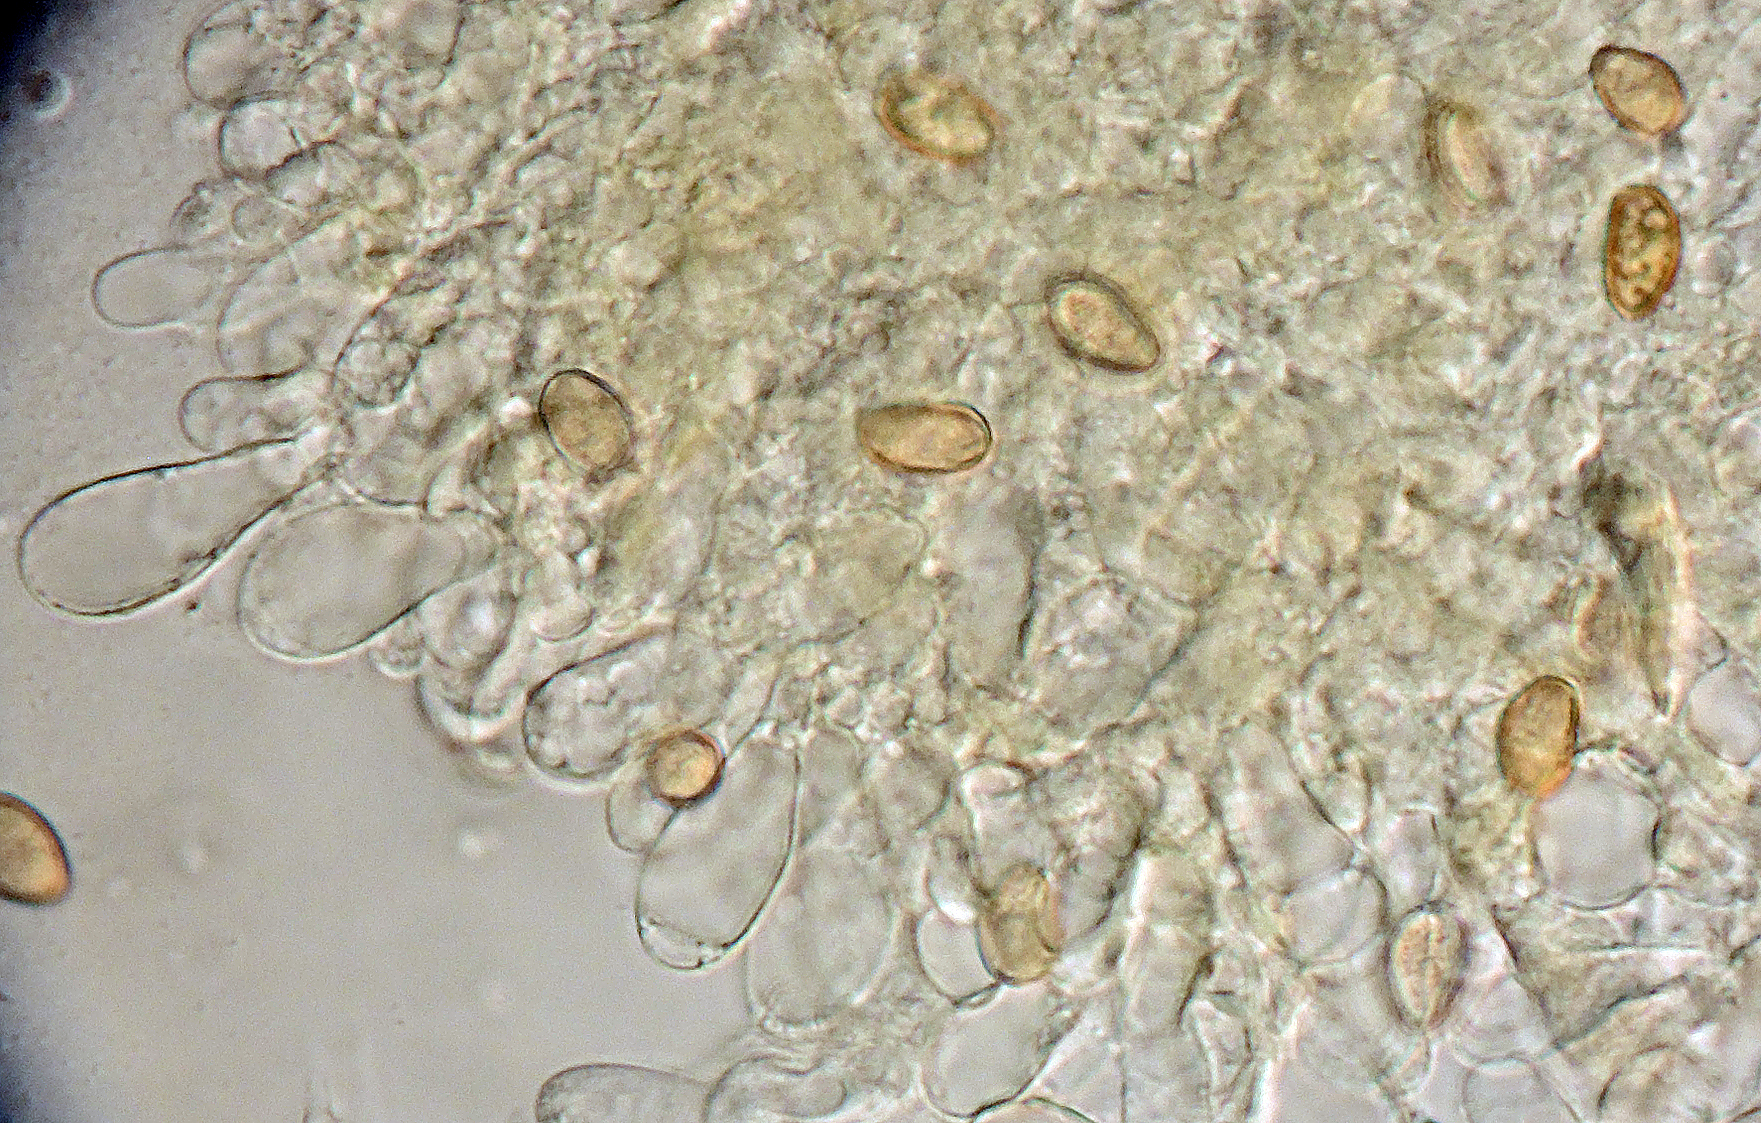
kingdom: Fungi
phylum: Basidiomycota
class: Agaricomycetes
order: Agaricales
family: Inocybaceae
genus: Mallocybe
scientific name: Mallocybe plebeia
